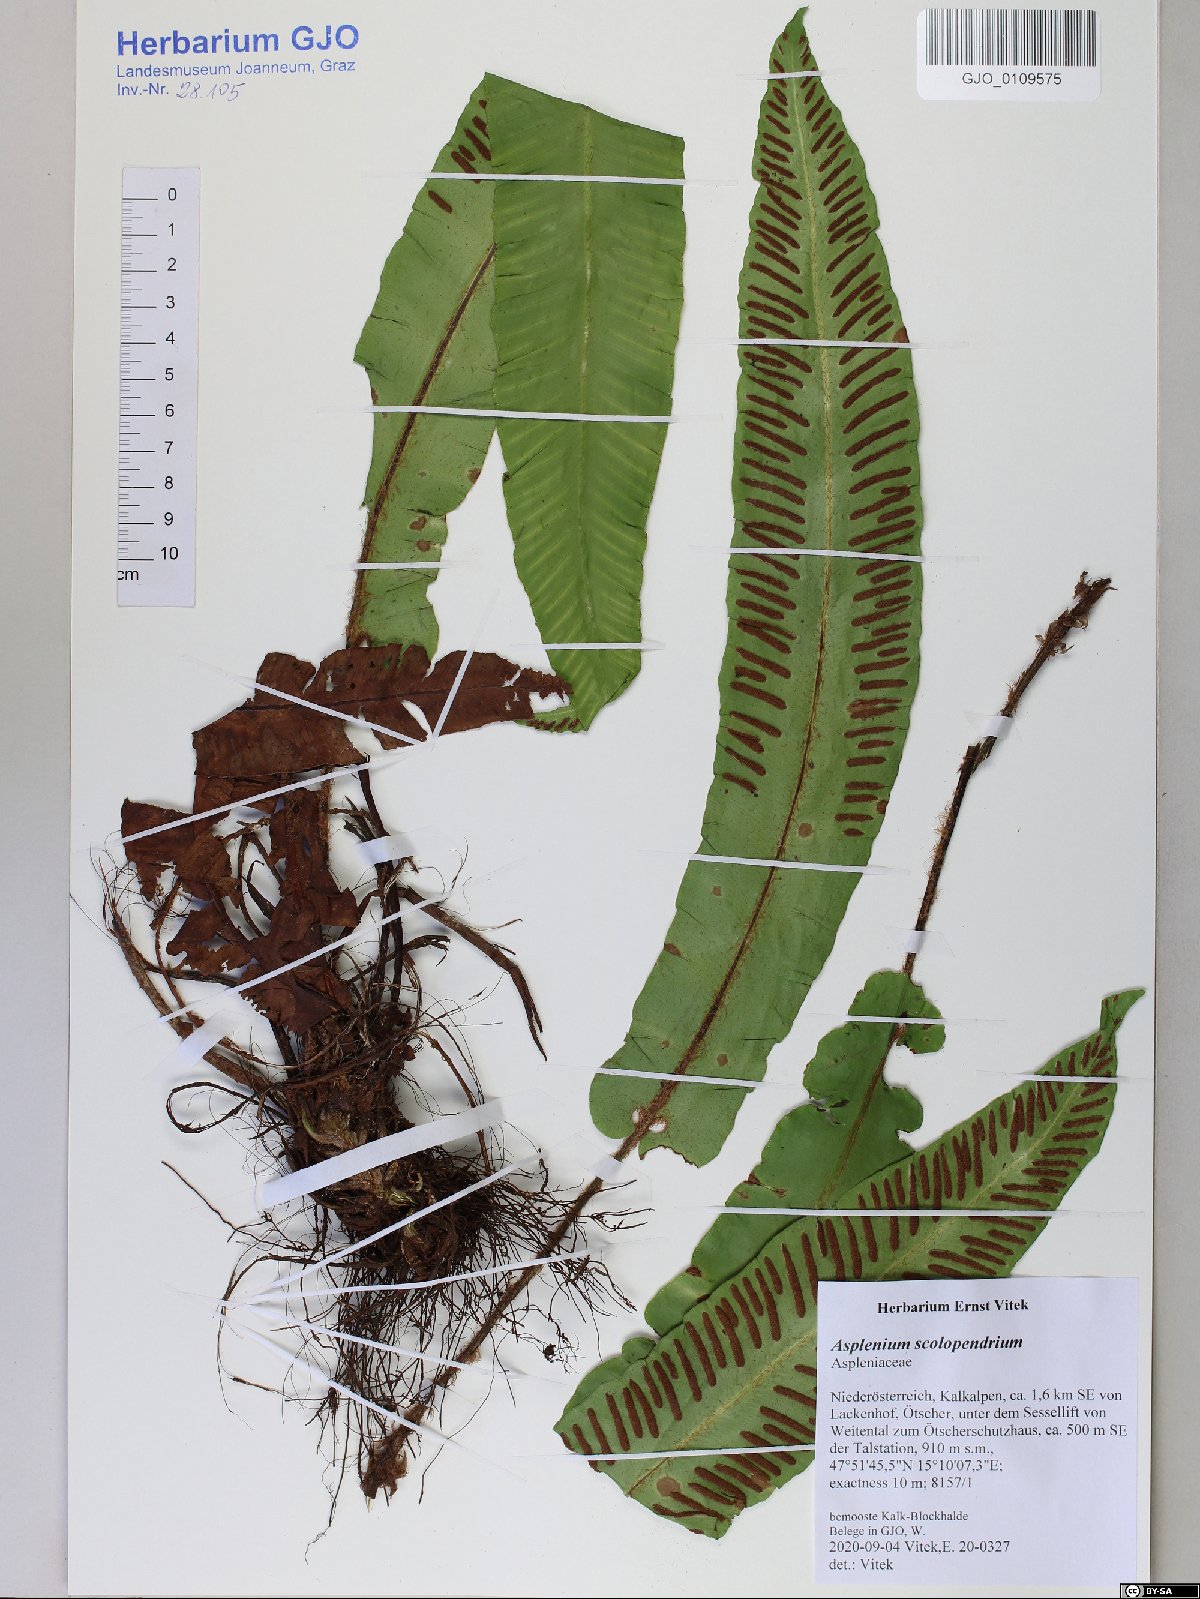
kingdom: Plantae
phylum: Tracheophyta
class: Polypodiopsida
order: Polypodiales
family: Aspleniaceae
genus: Asplenium
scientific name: Asplenium scolopendrium
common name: Hart's-tongue fern
